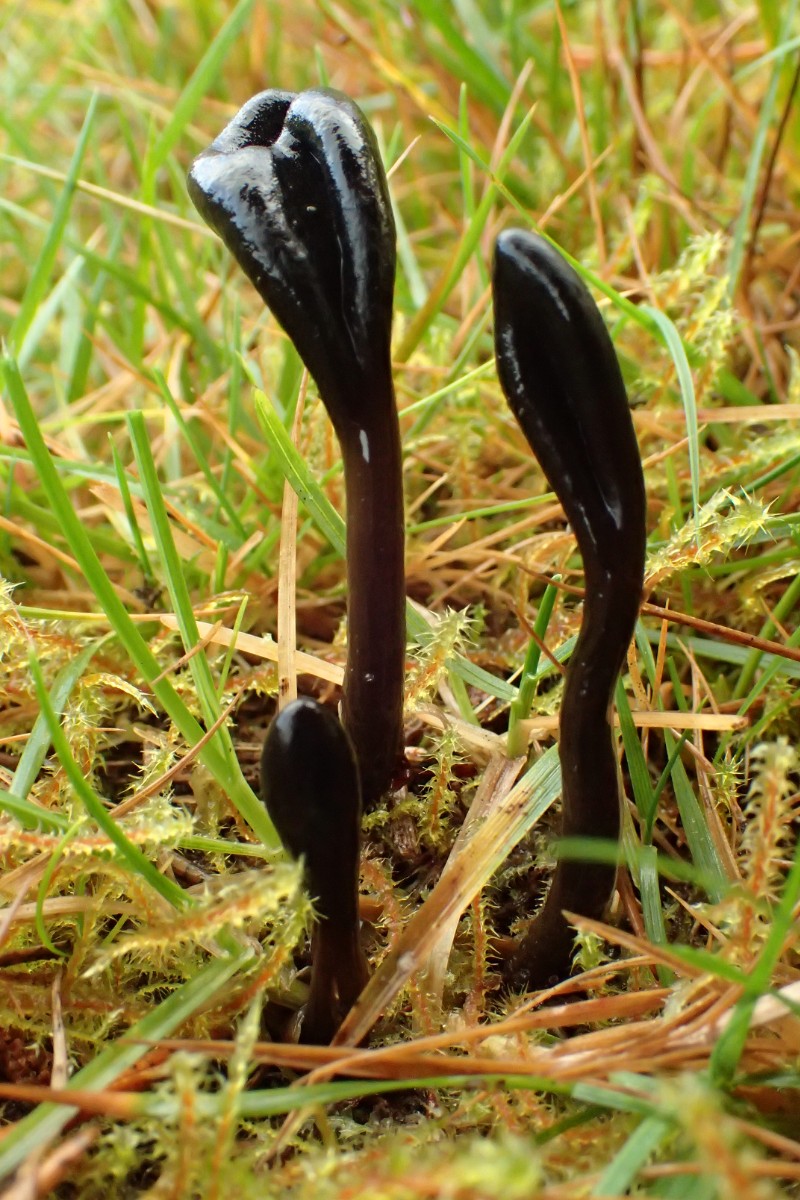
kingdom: Fungi
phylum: Ascomycota
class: Geoglossomycetes
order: Geoglossales
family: Geoglossaceae
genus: Glutinoglossum
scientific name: Glutinoglossum glutinosum
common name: slimet jordtunge
